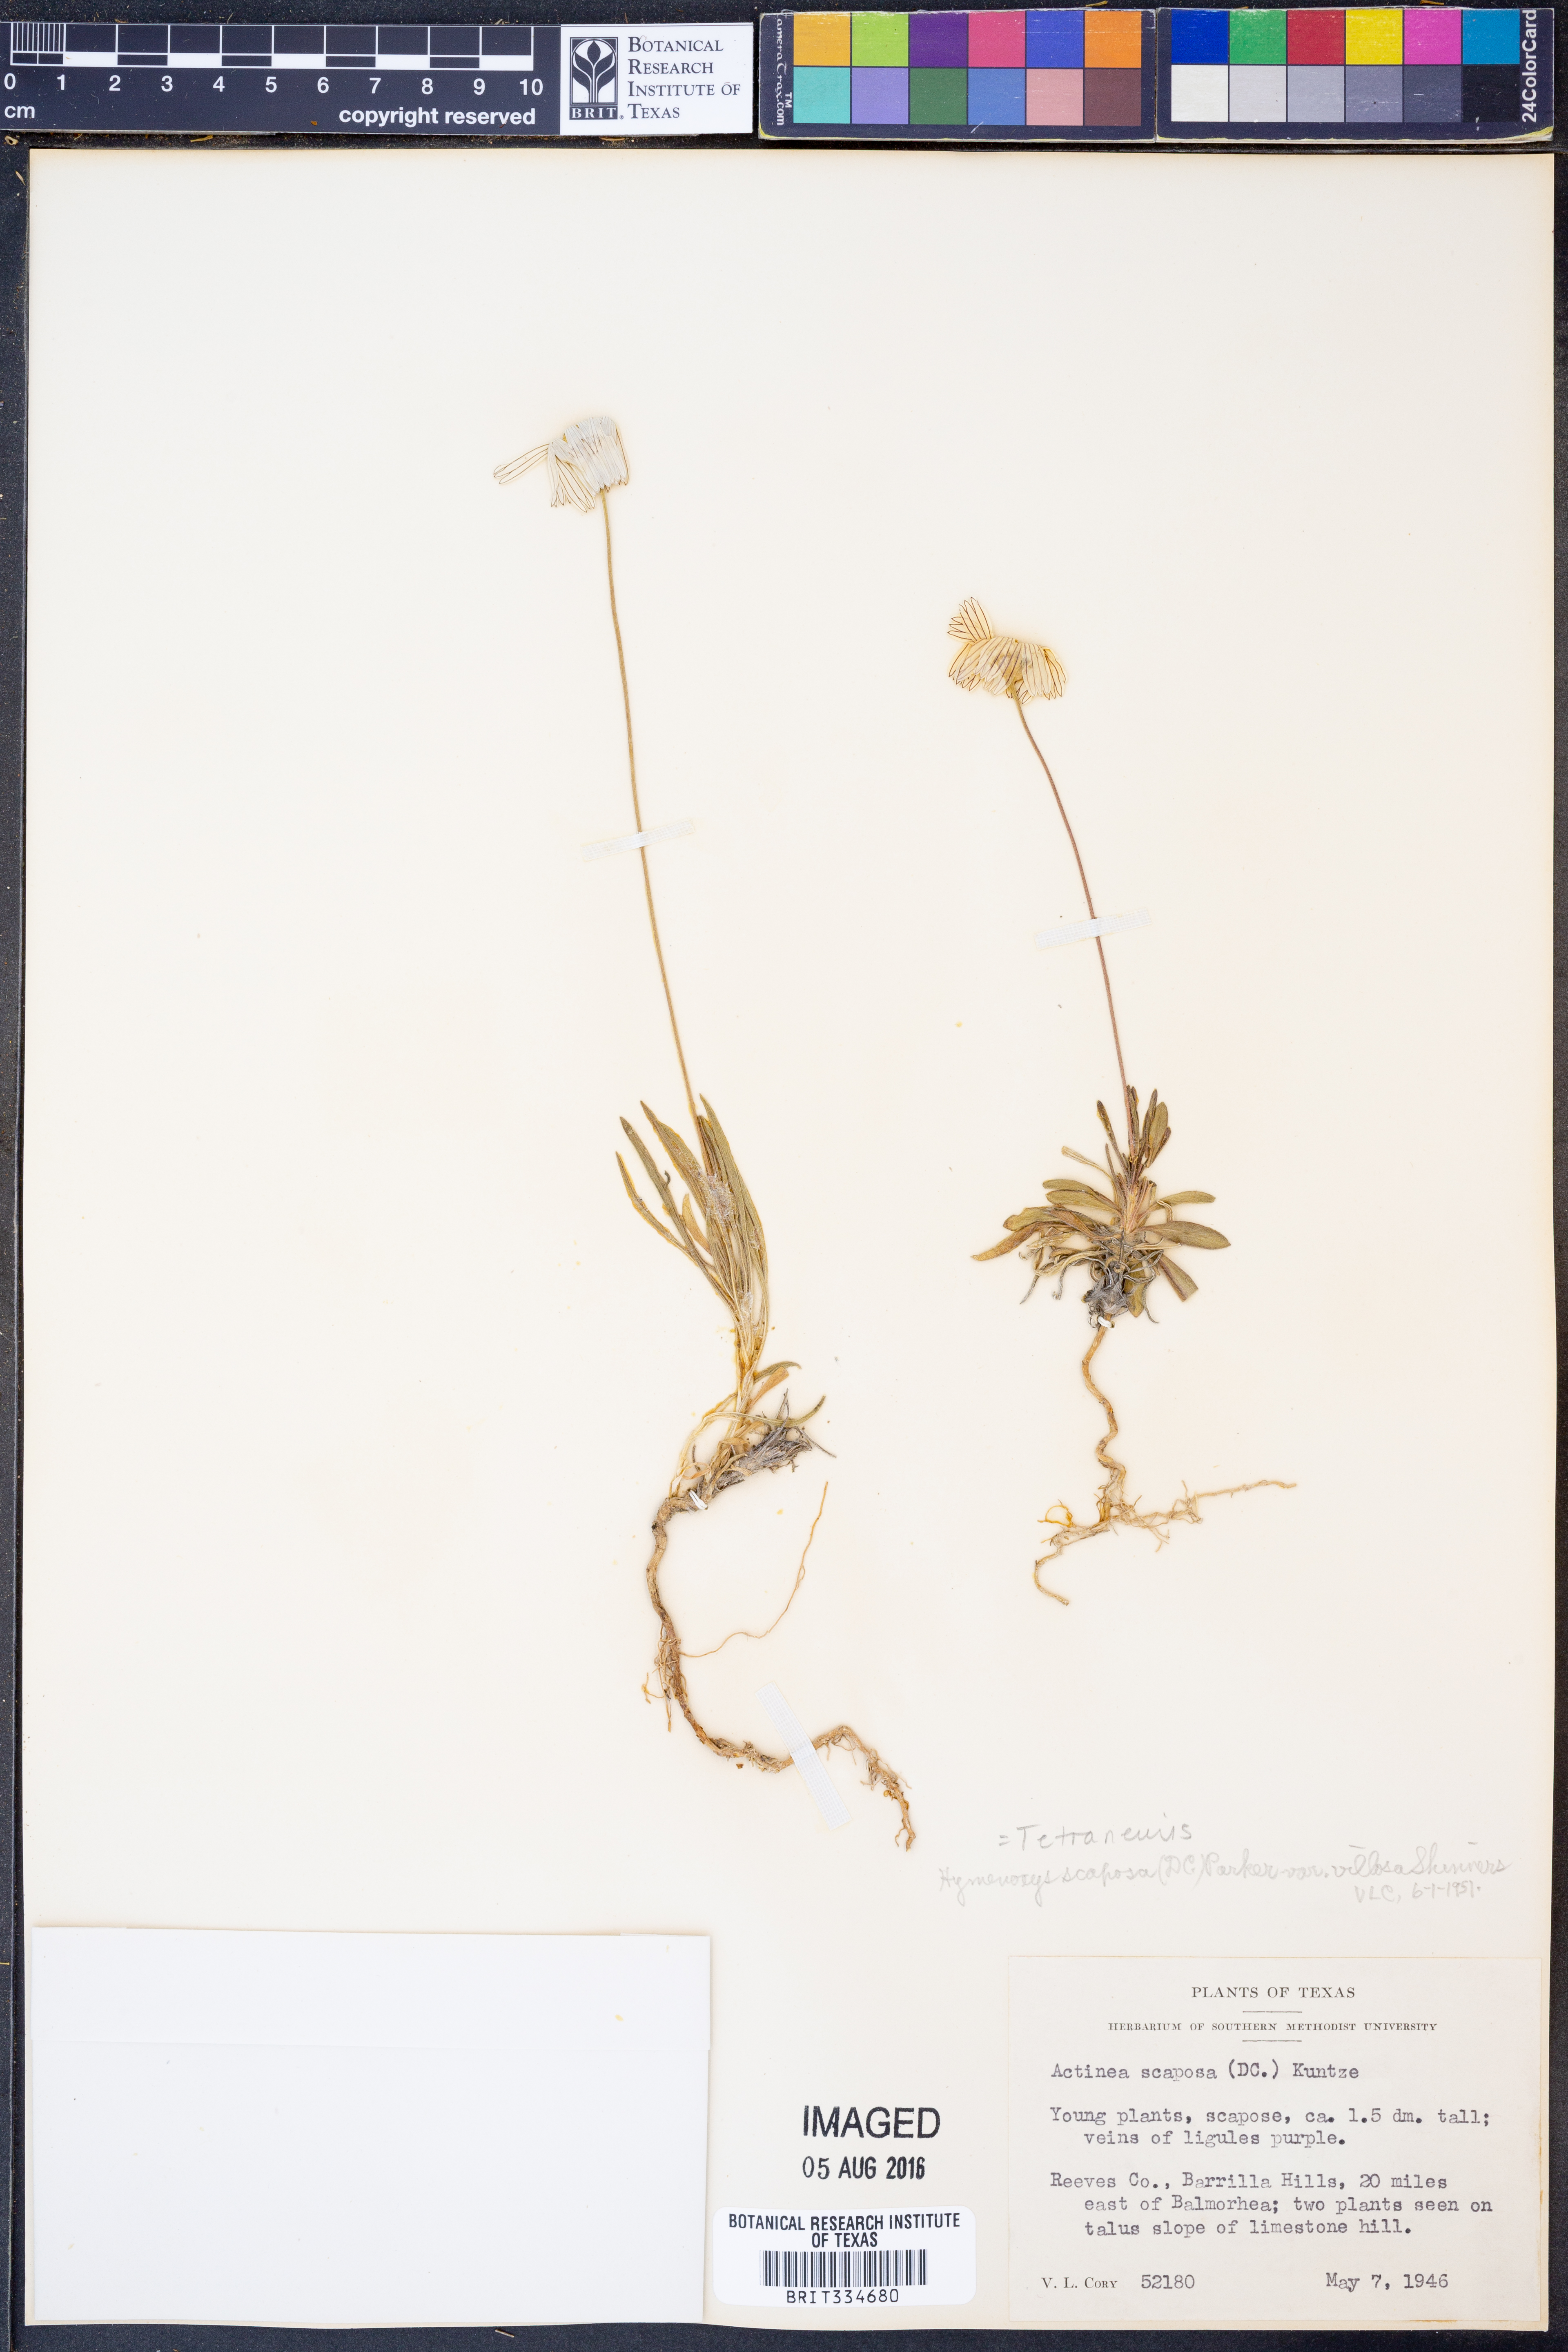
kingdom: Plantae
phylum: Tracheophyta
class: Magnoliopsida
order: Asterales
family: Asteraceae
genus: Tetraneuris
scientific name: Tetraneuris scaposa
